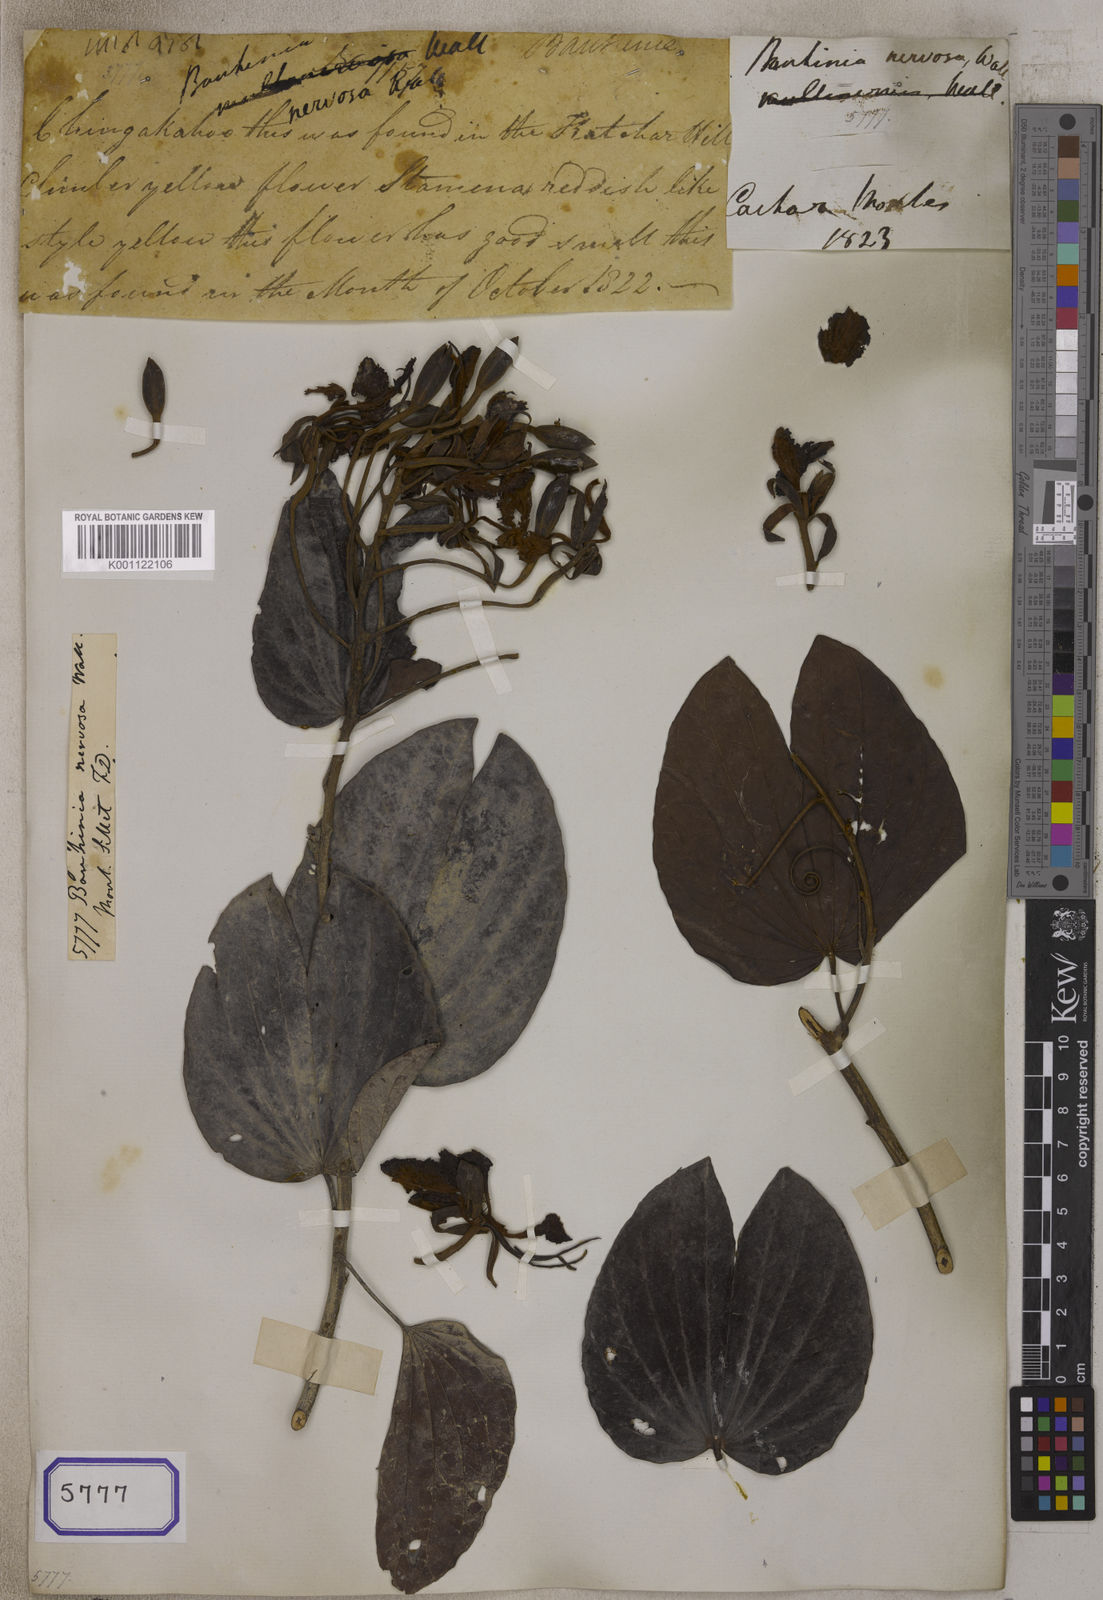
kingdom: Plantae
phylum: Tracheophyta
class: Magnoliopsida
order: Fabales
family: Fabaceae
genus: Bauhinia
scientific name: Bauhinia
